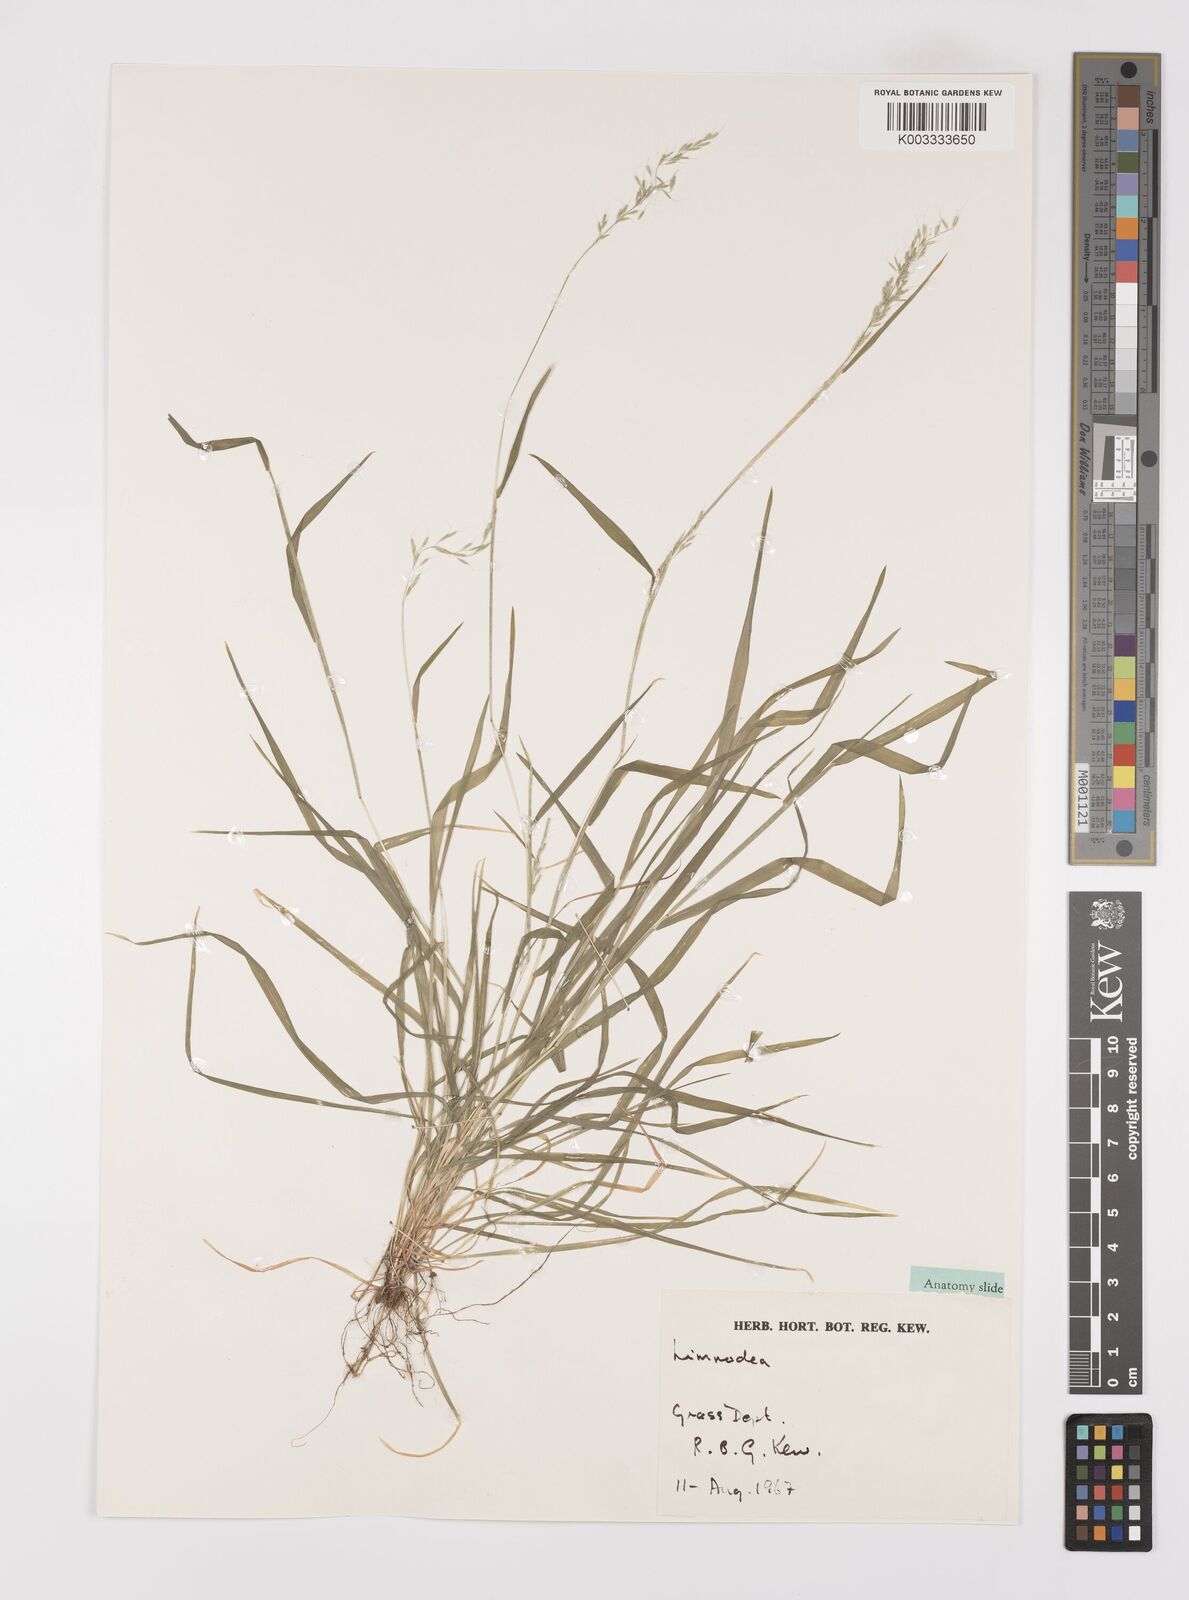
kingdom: Plantae
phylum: Tracheophyta
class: Liliopsida
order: Poales
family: Poaceae
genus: Limnodea
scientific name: Limnodea arkansana
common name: Ozark-grass
